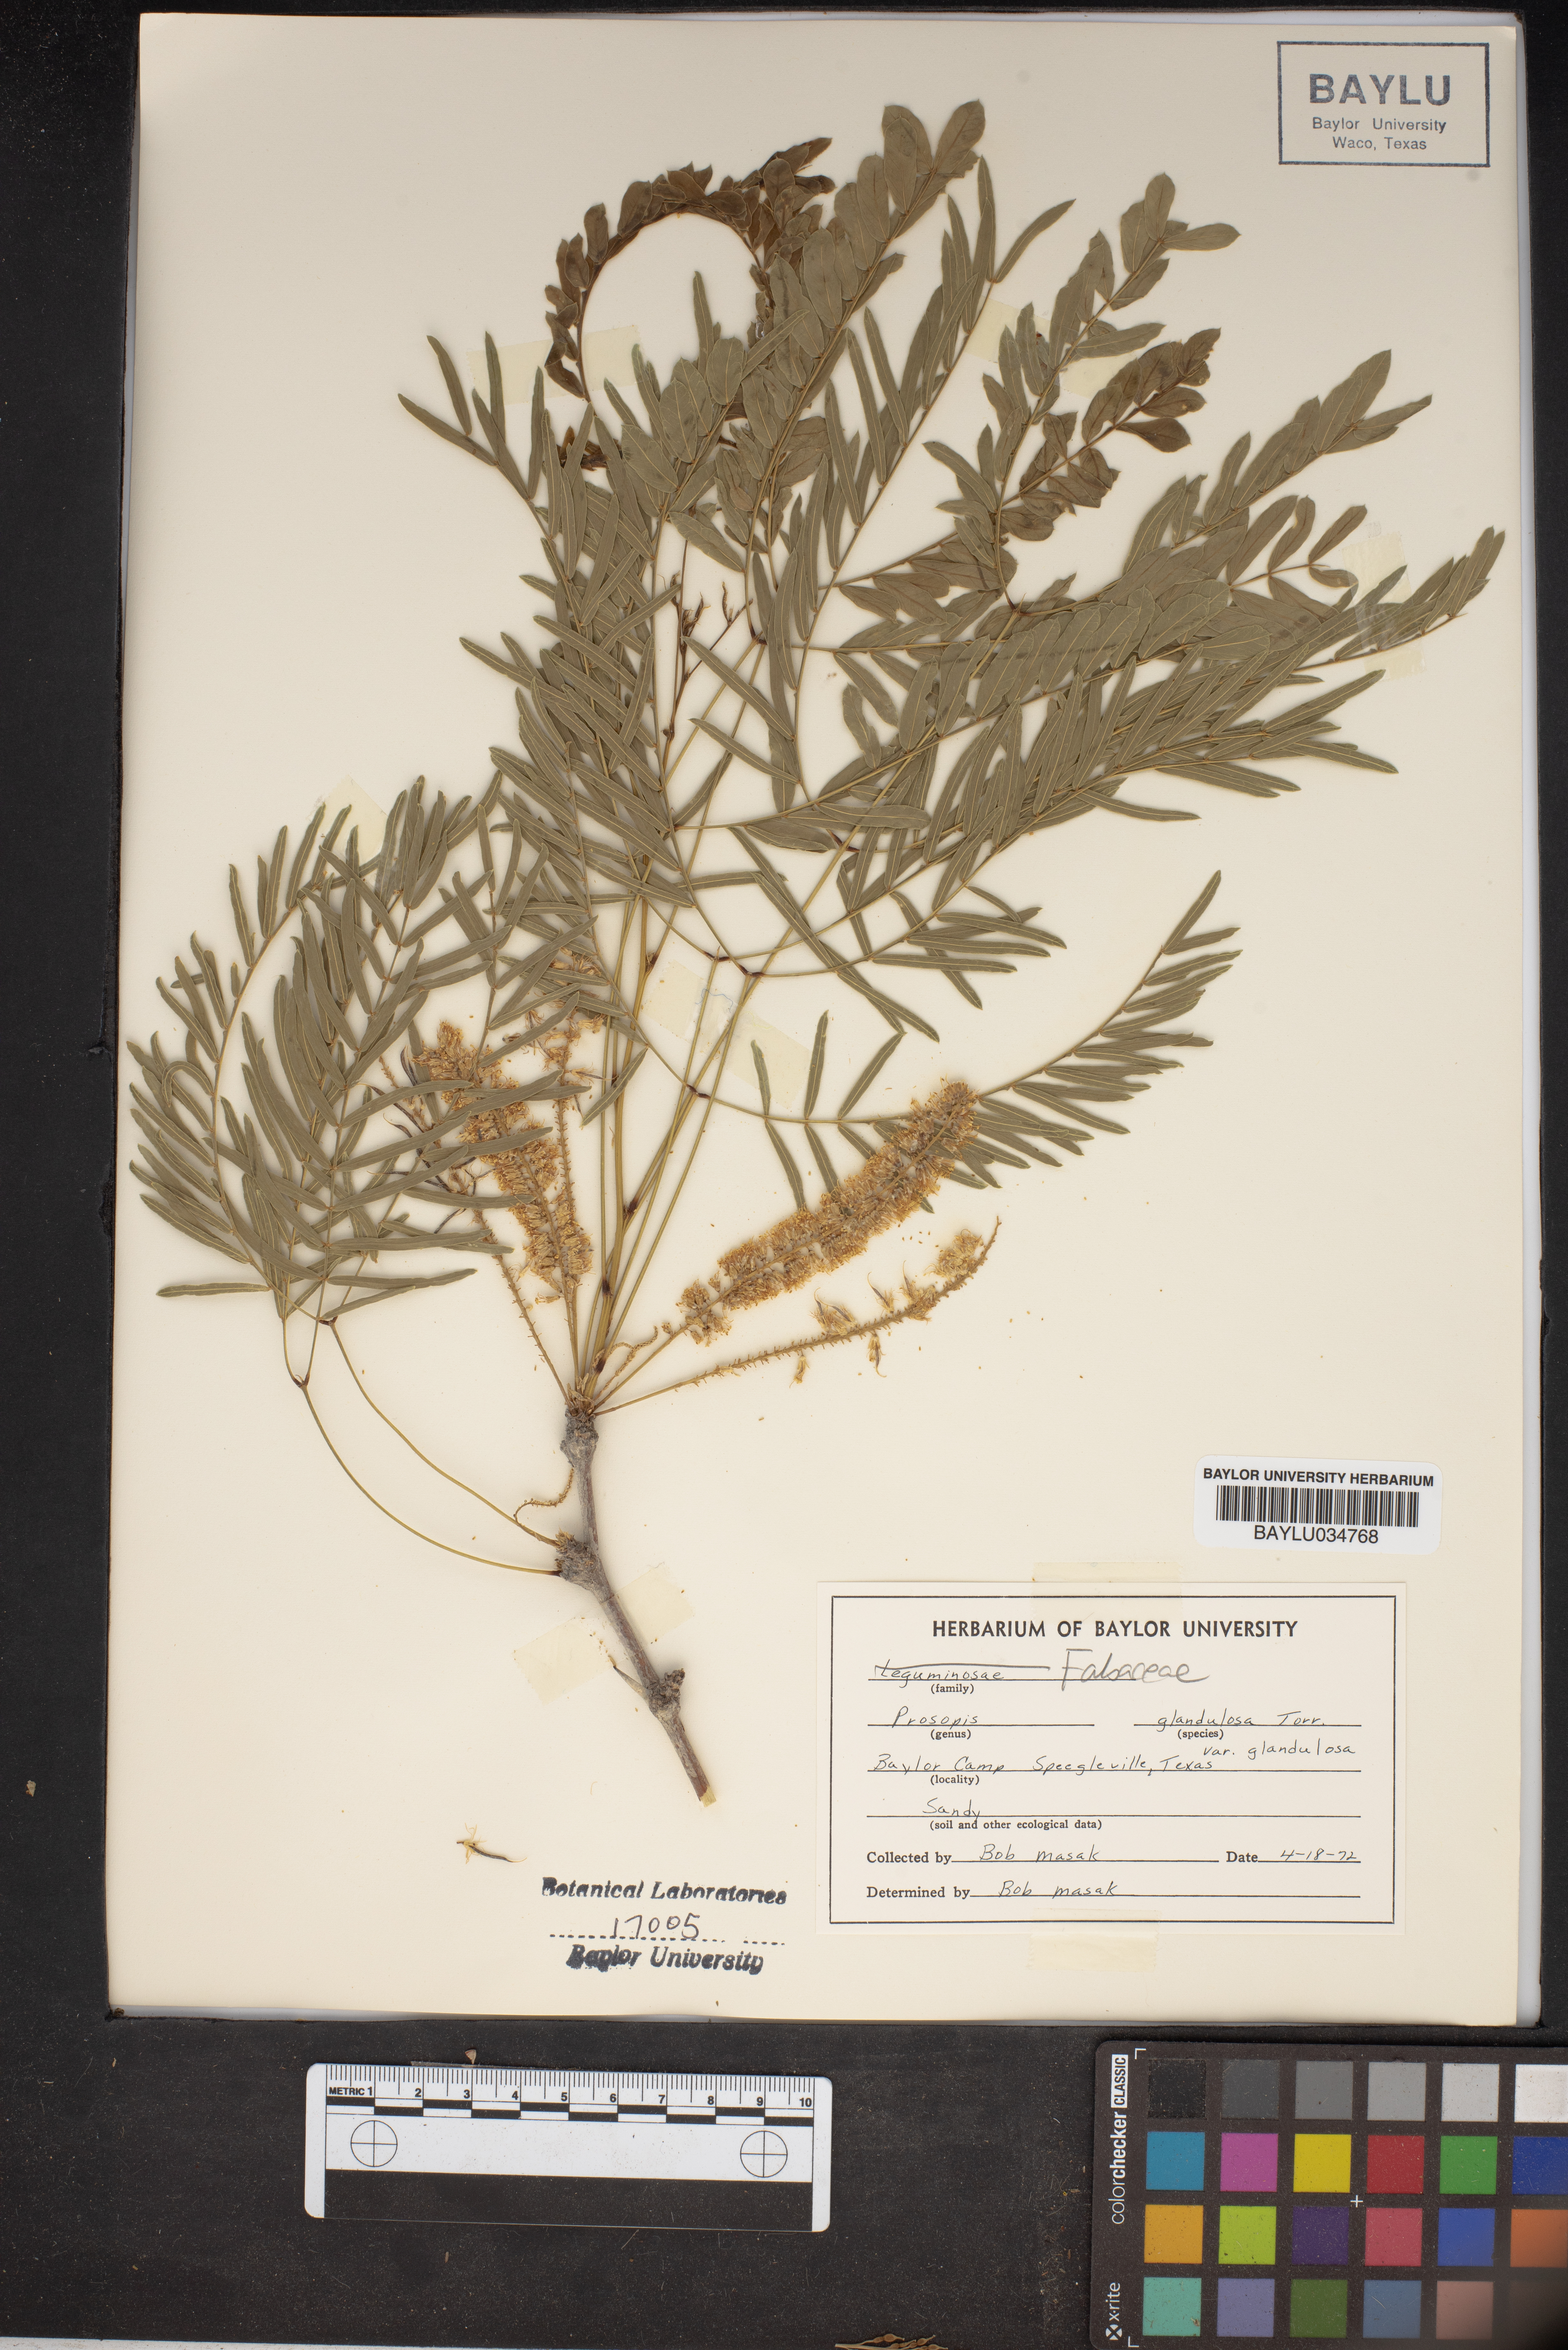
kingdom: Plantae
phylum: Tracheophyta
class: Magnoliopsida
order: Fabales
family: Fabaceae
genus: Prosopis
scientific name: Prosopis glandulosa
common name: Honey mesquite
